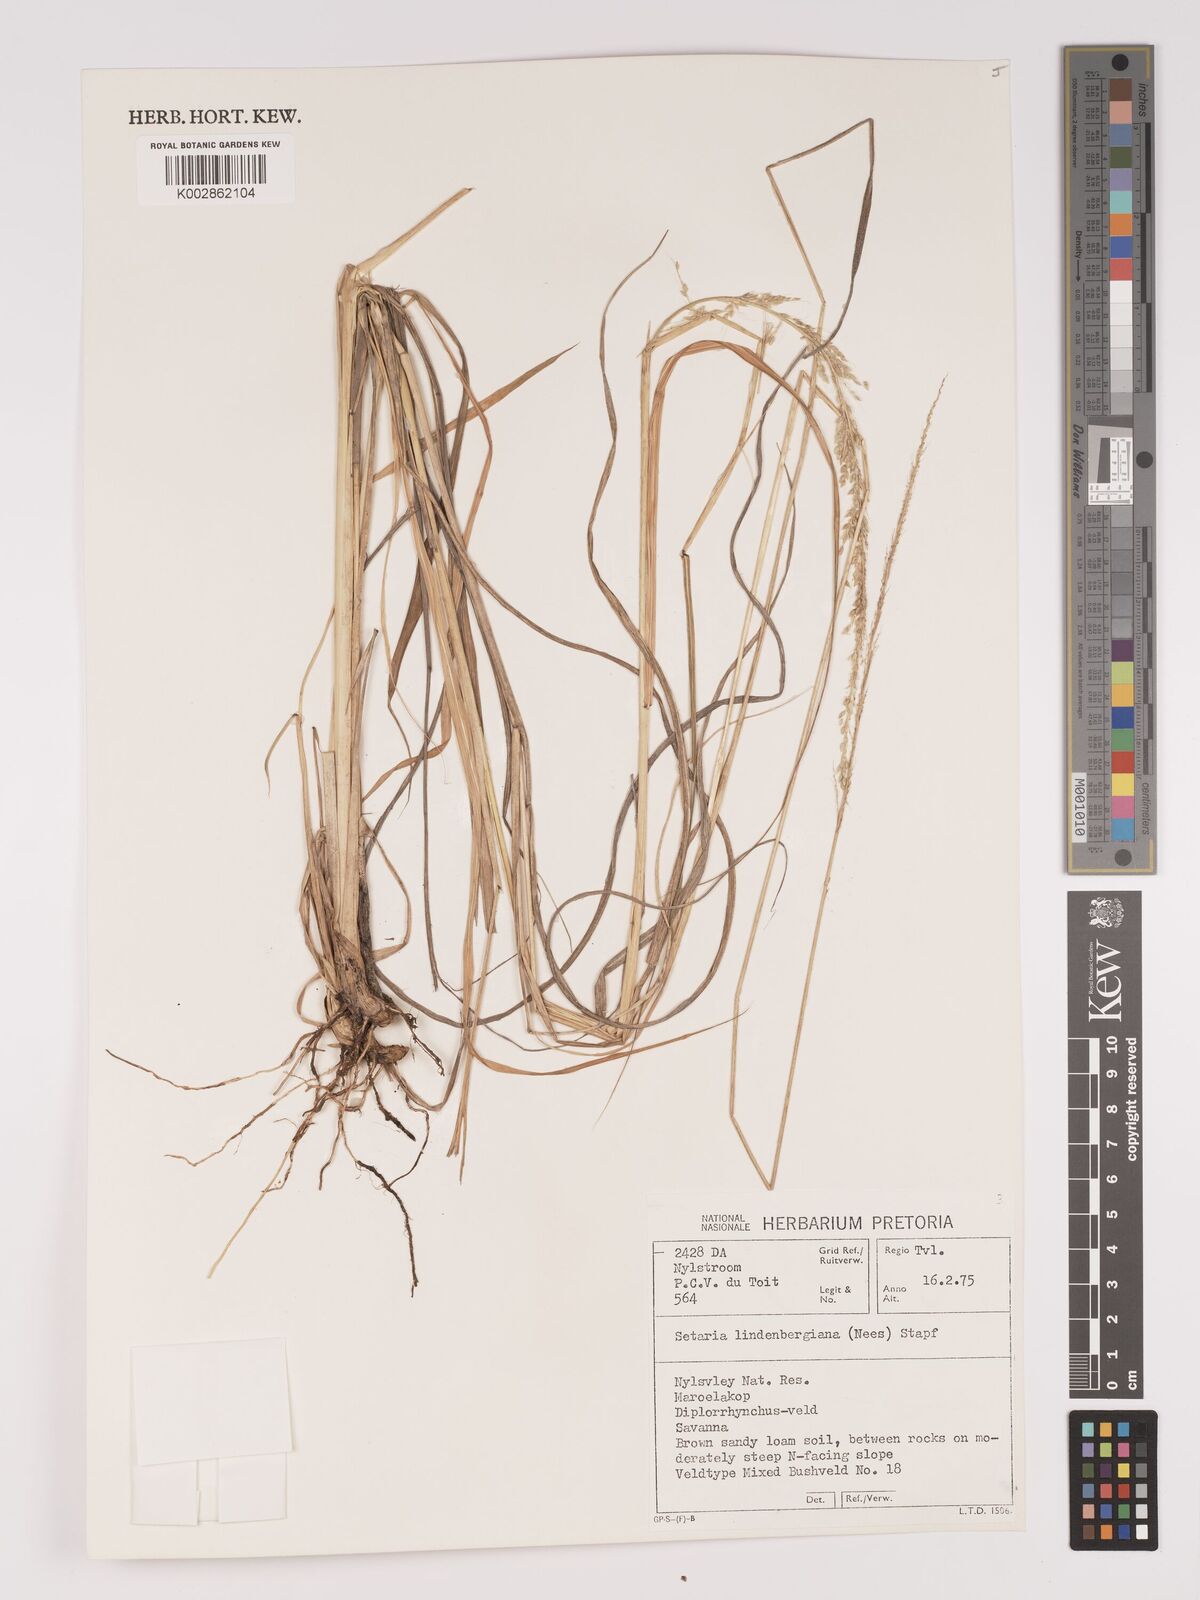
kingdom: Plantae
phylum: Tracheophyta
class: Liliopsida
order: Poales
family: Poaceae
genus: Setaria
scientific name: Setaria lindenbergiana
